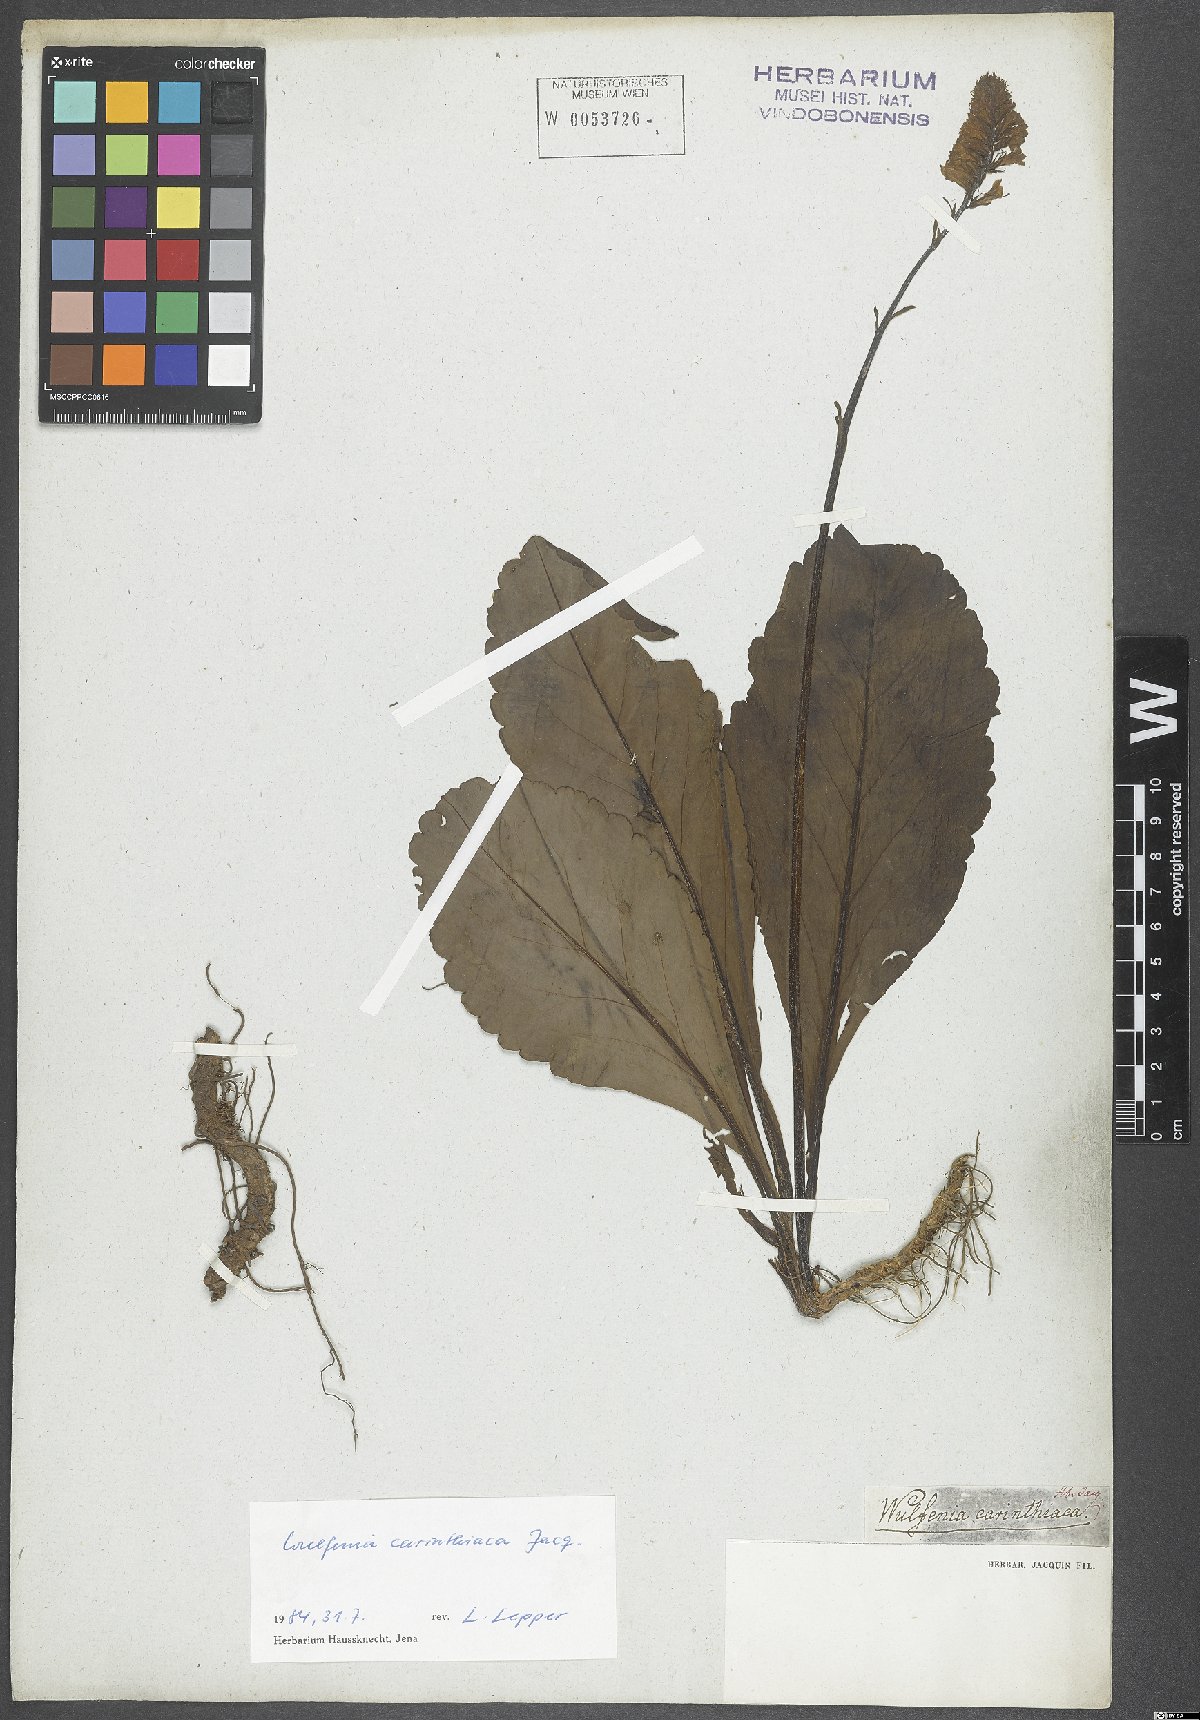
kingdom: Plantae
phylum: Tracheophyta
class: Magnoliopsida
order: Lamiales
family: Plantaginaceae
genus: Wulfenia
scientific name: Wulfenia carinthiaca
